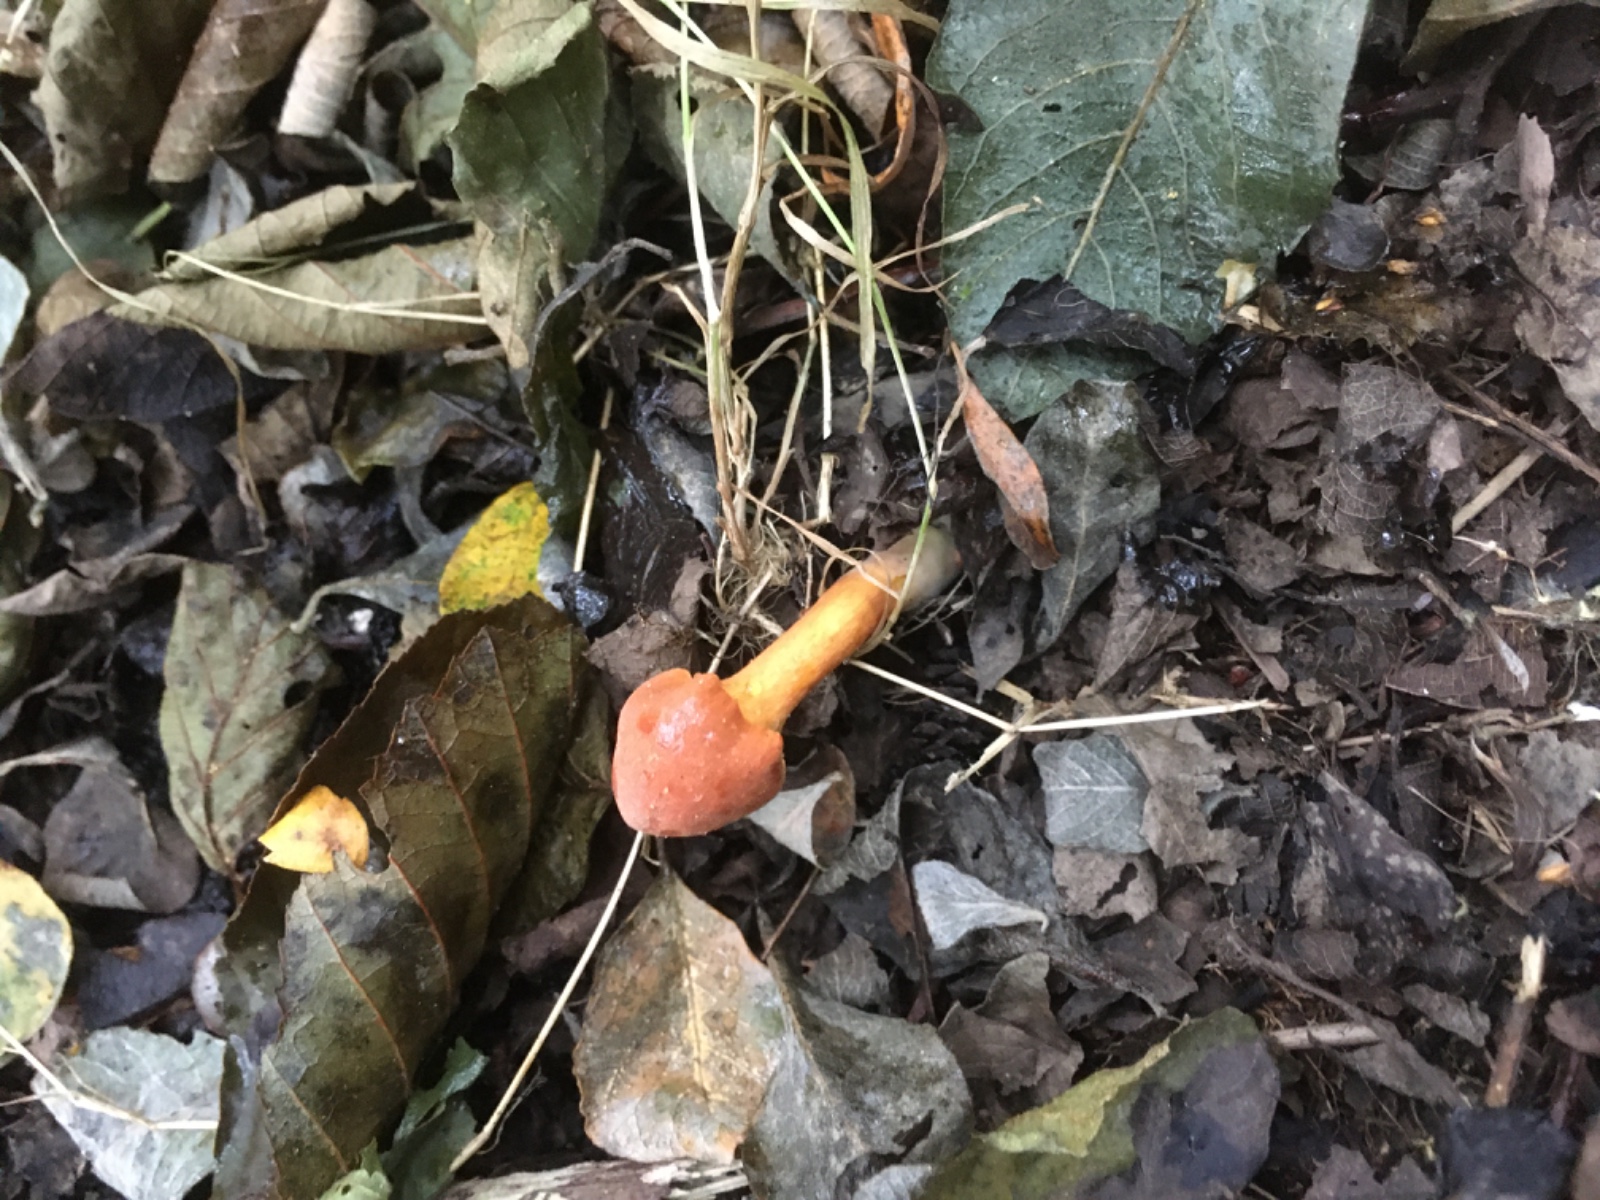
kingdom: Fungi
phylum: Basidiomycota
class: Agaricomycetes
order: Agaricales
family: Cortinariaceae
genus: Cortinarius
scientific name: Cortinarius uliginosus
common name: mose-slørhat
